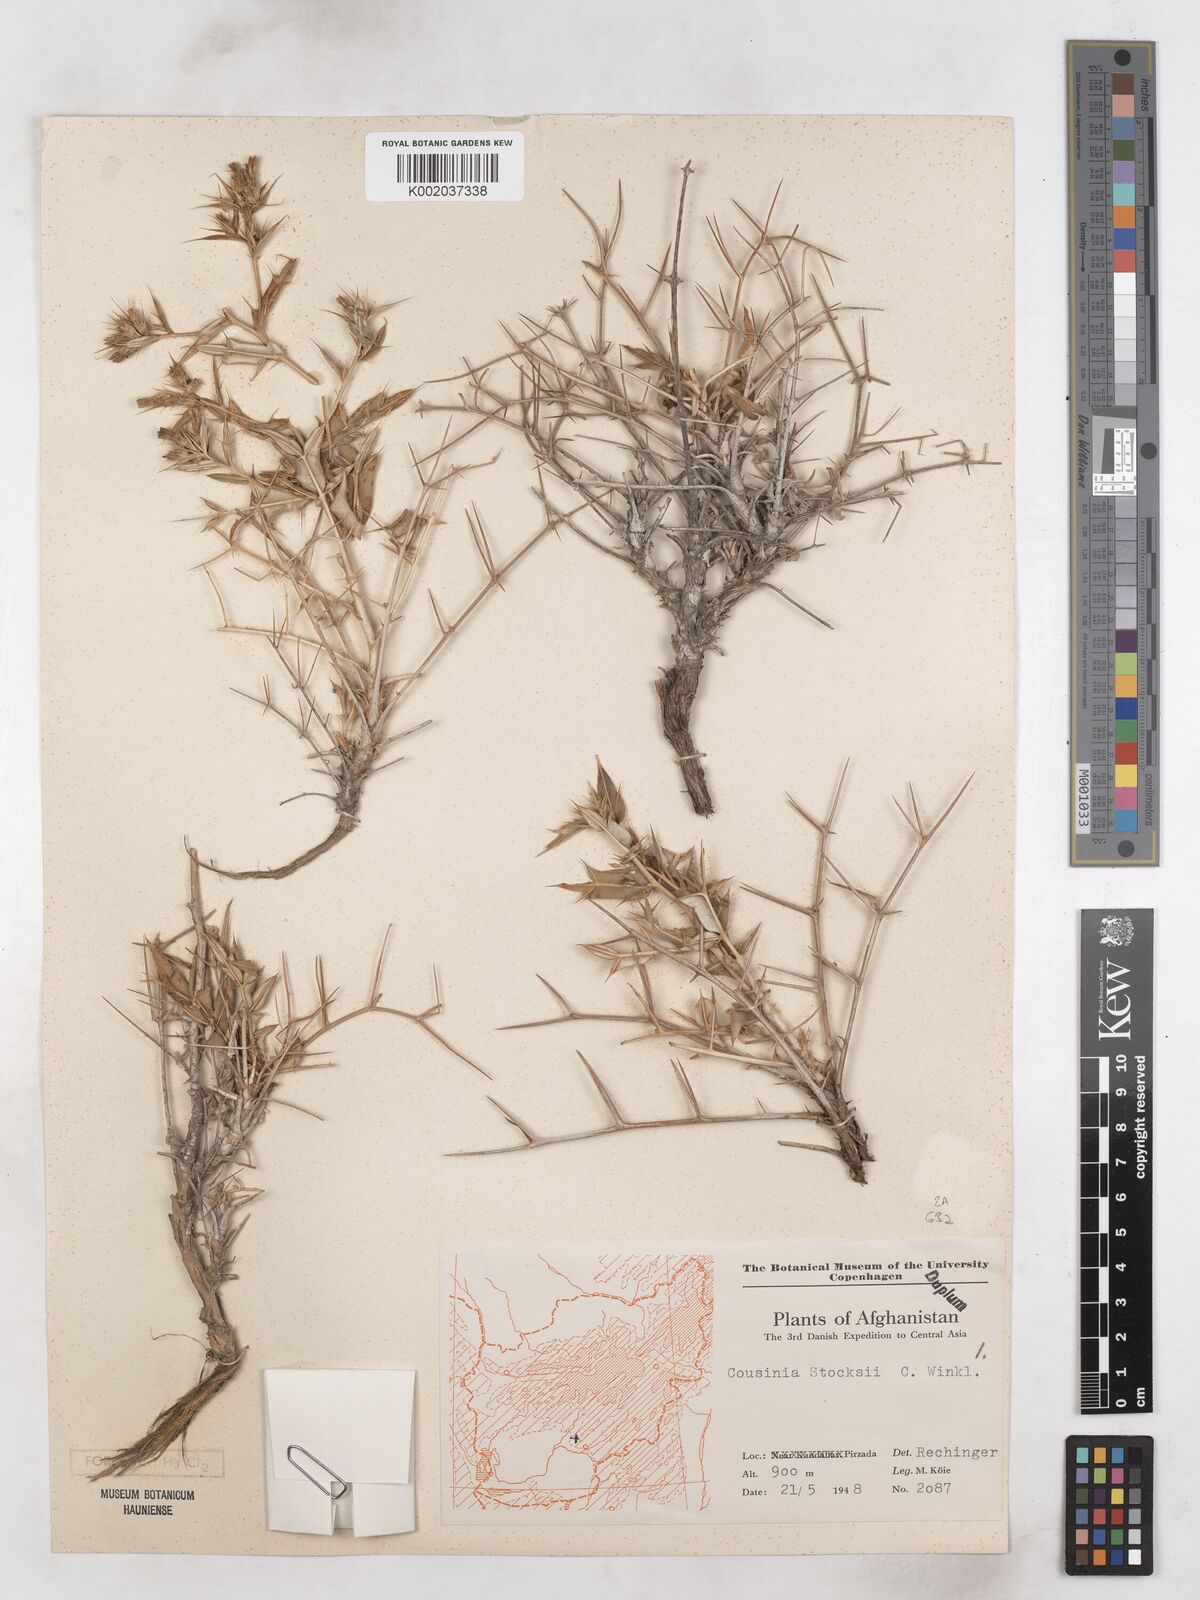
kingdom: Plantae
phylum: Tracheophyta
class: Magnoliopsida
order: Asterales
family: Asteraceae
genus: Cousinia
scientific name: Cousinia stocksii
